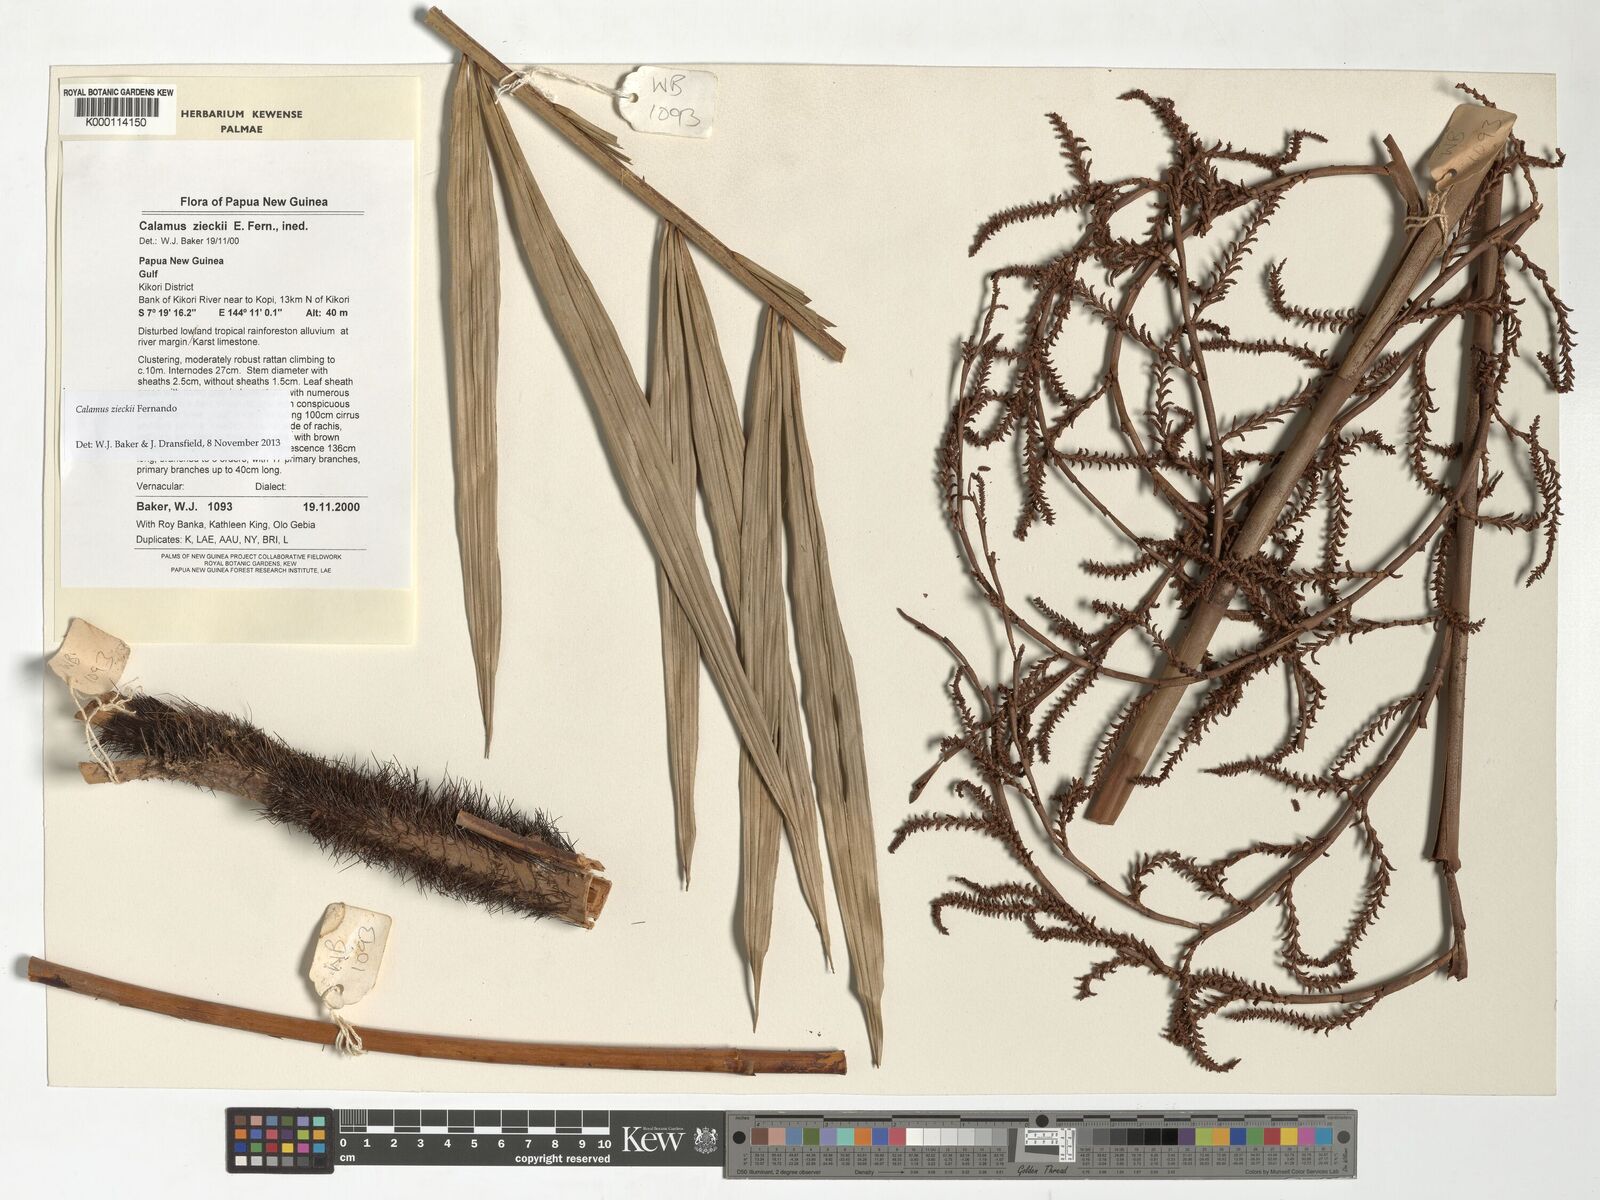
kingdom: Plantae
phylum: Tracheophyta
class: Liliopsida
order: Arecales
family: Arecaceae
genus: Calamus
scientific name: Calamus zieckii
